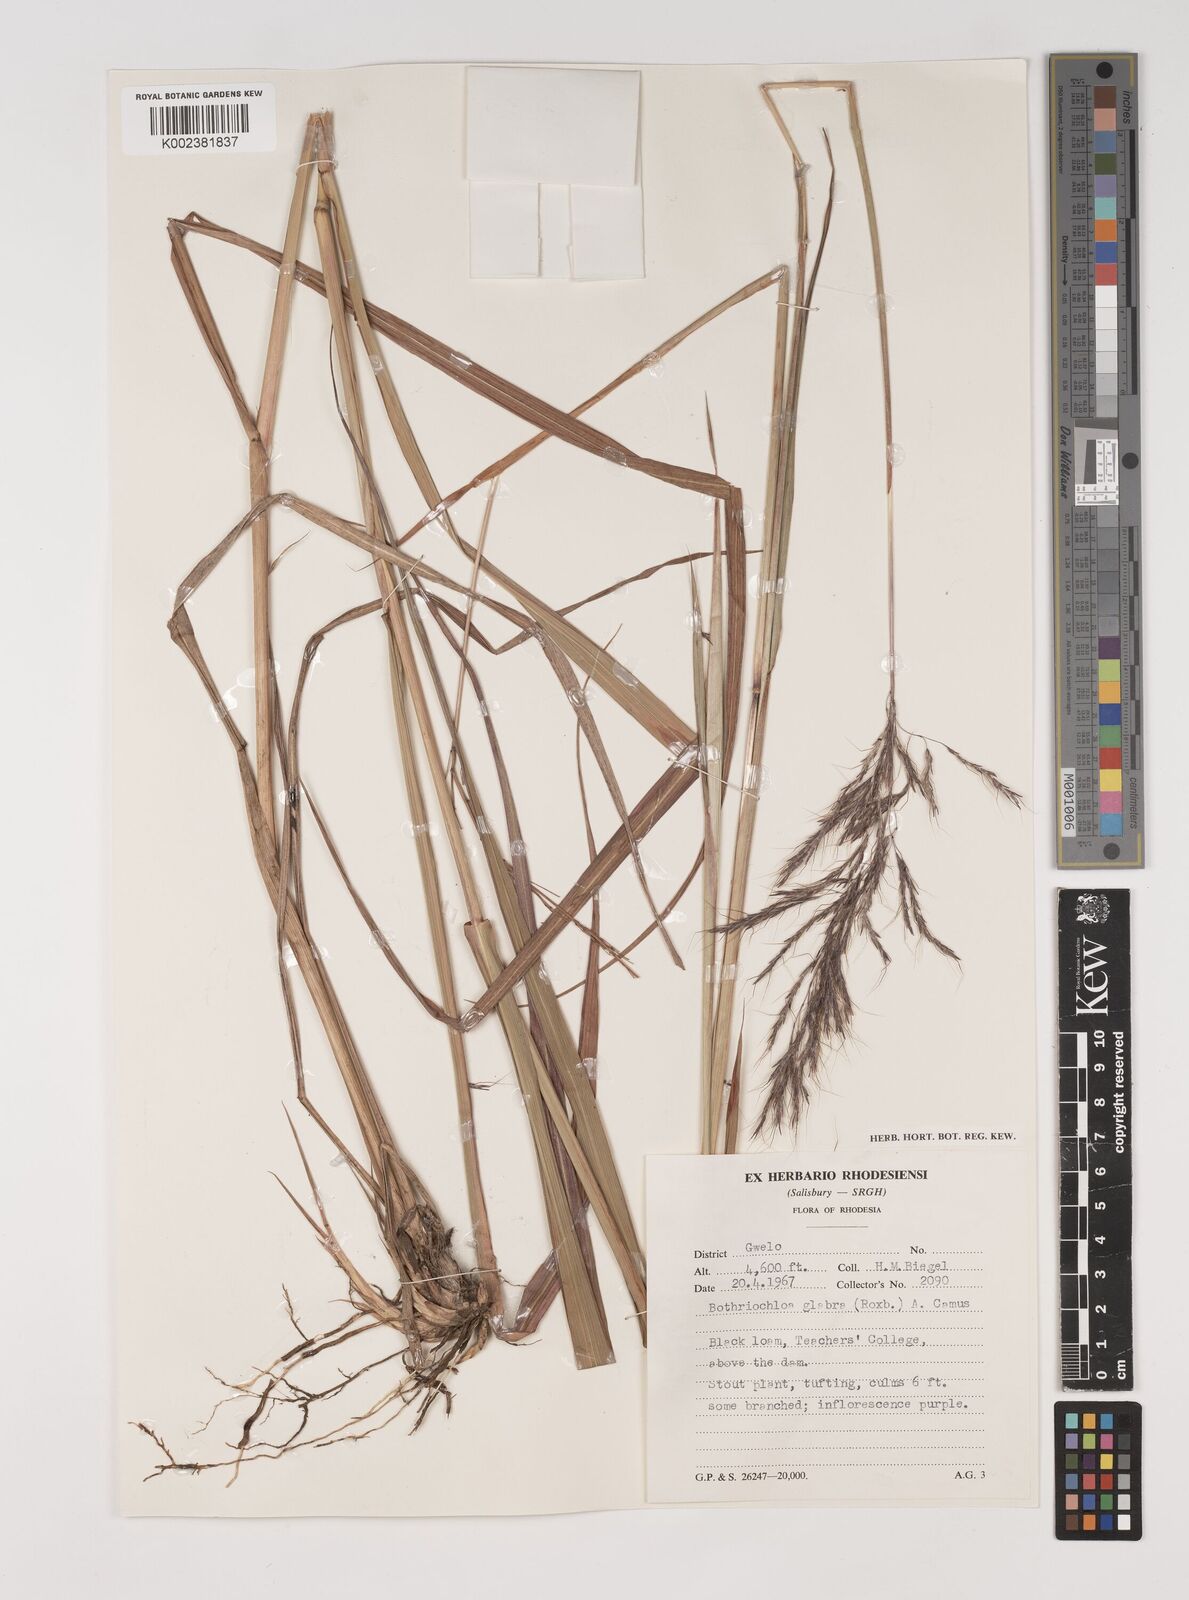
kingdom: Plantae
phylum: Tracheophyta
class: Liliopsida
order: Poales
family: Poaceae
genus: Bothriochloa
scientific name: Bothriochloa bladhii
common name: Caucasian bluestem
